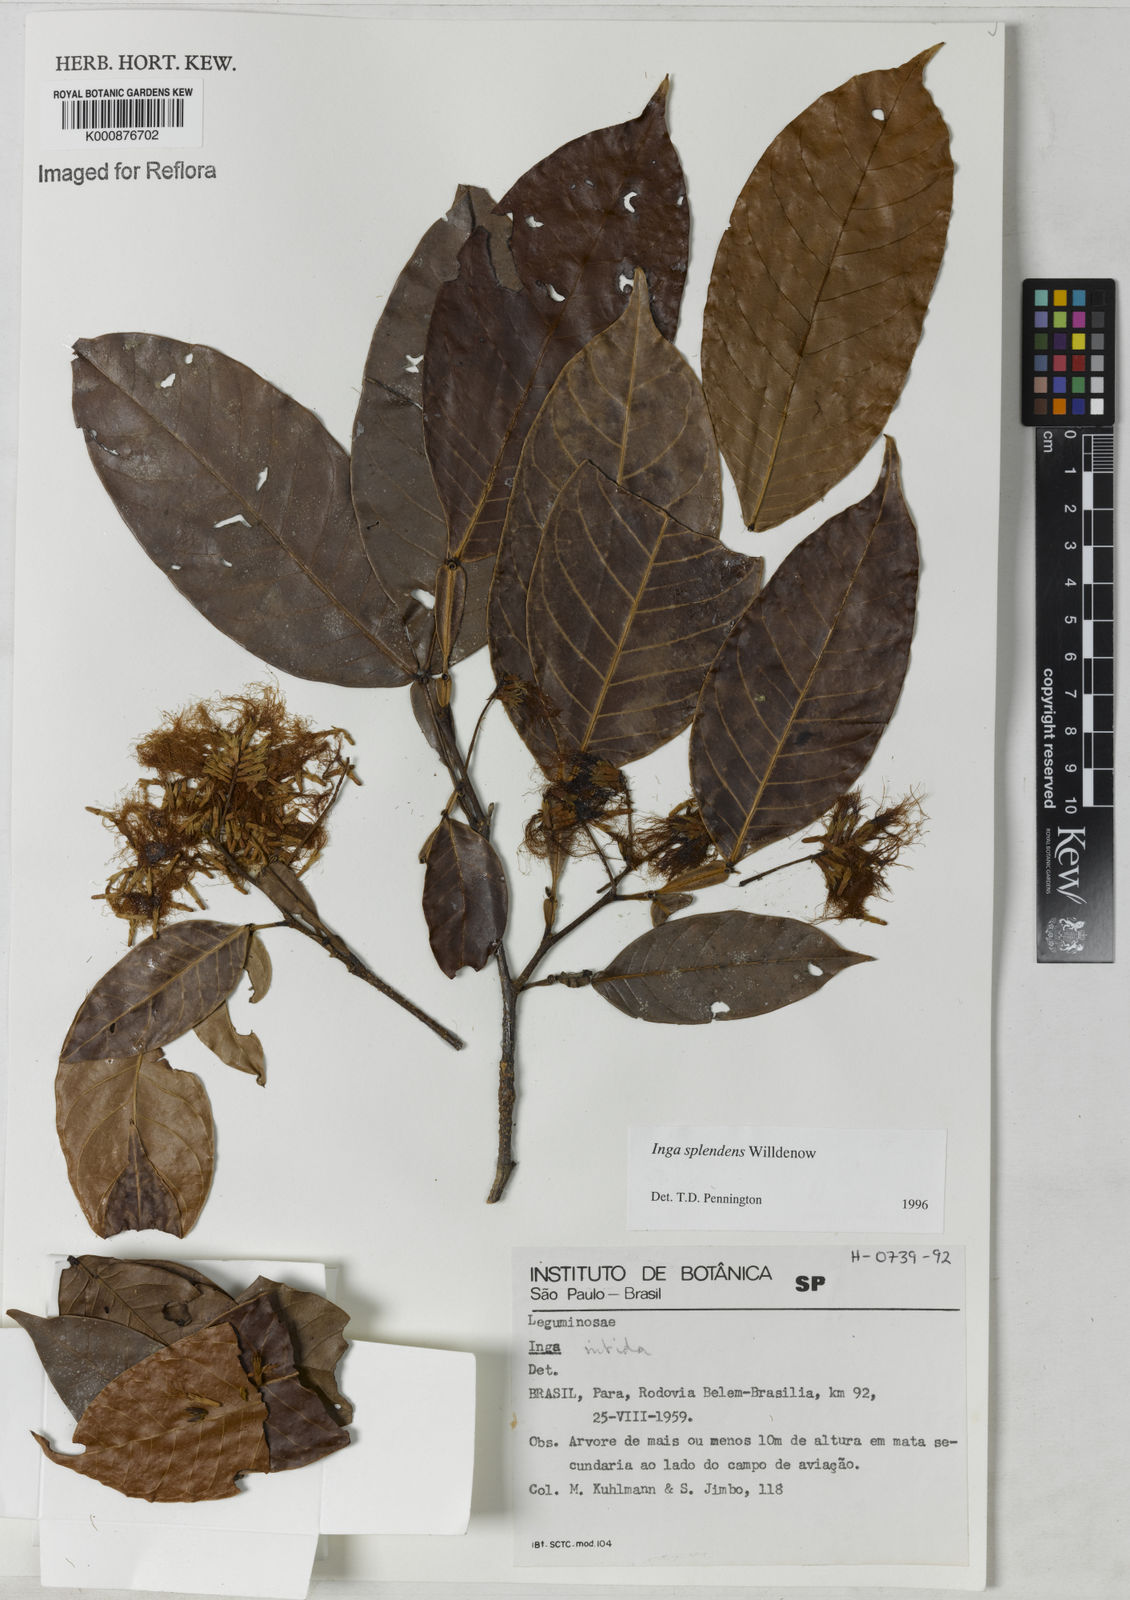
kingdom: Plantae
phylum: Tracheophyta
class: Magnoliopsida
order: Fabales
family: Fabaceae
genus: Inga
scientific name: Inga splendens
